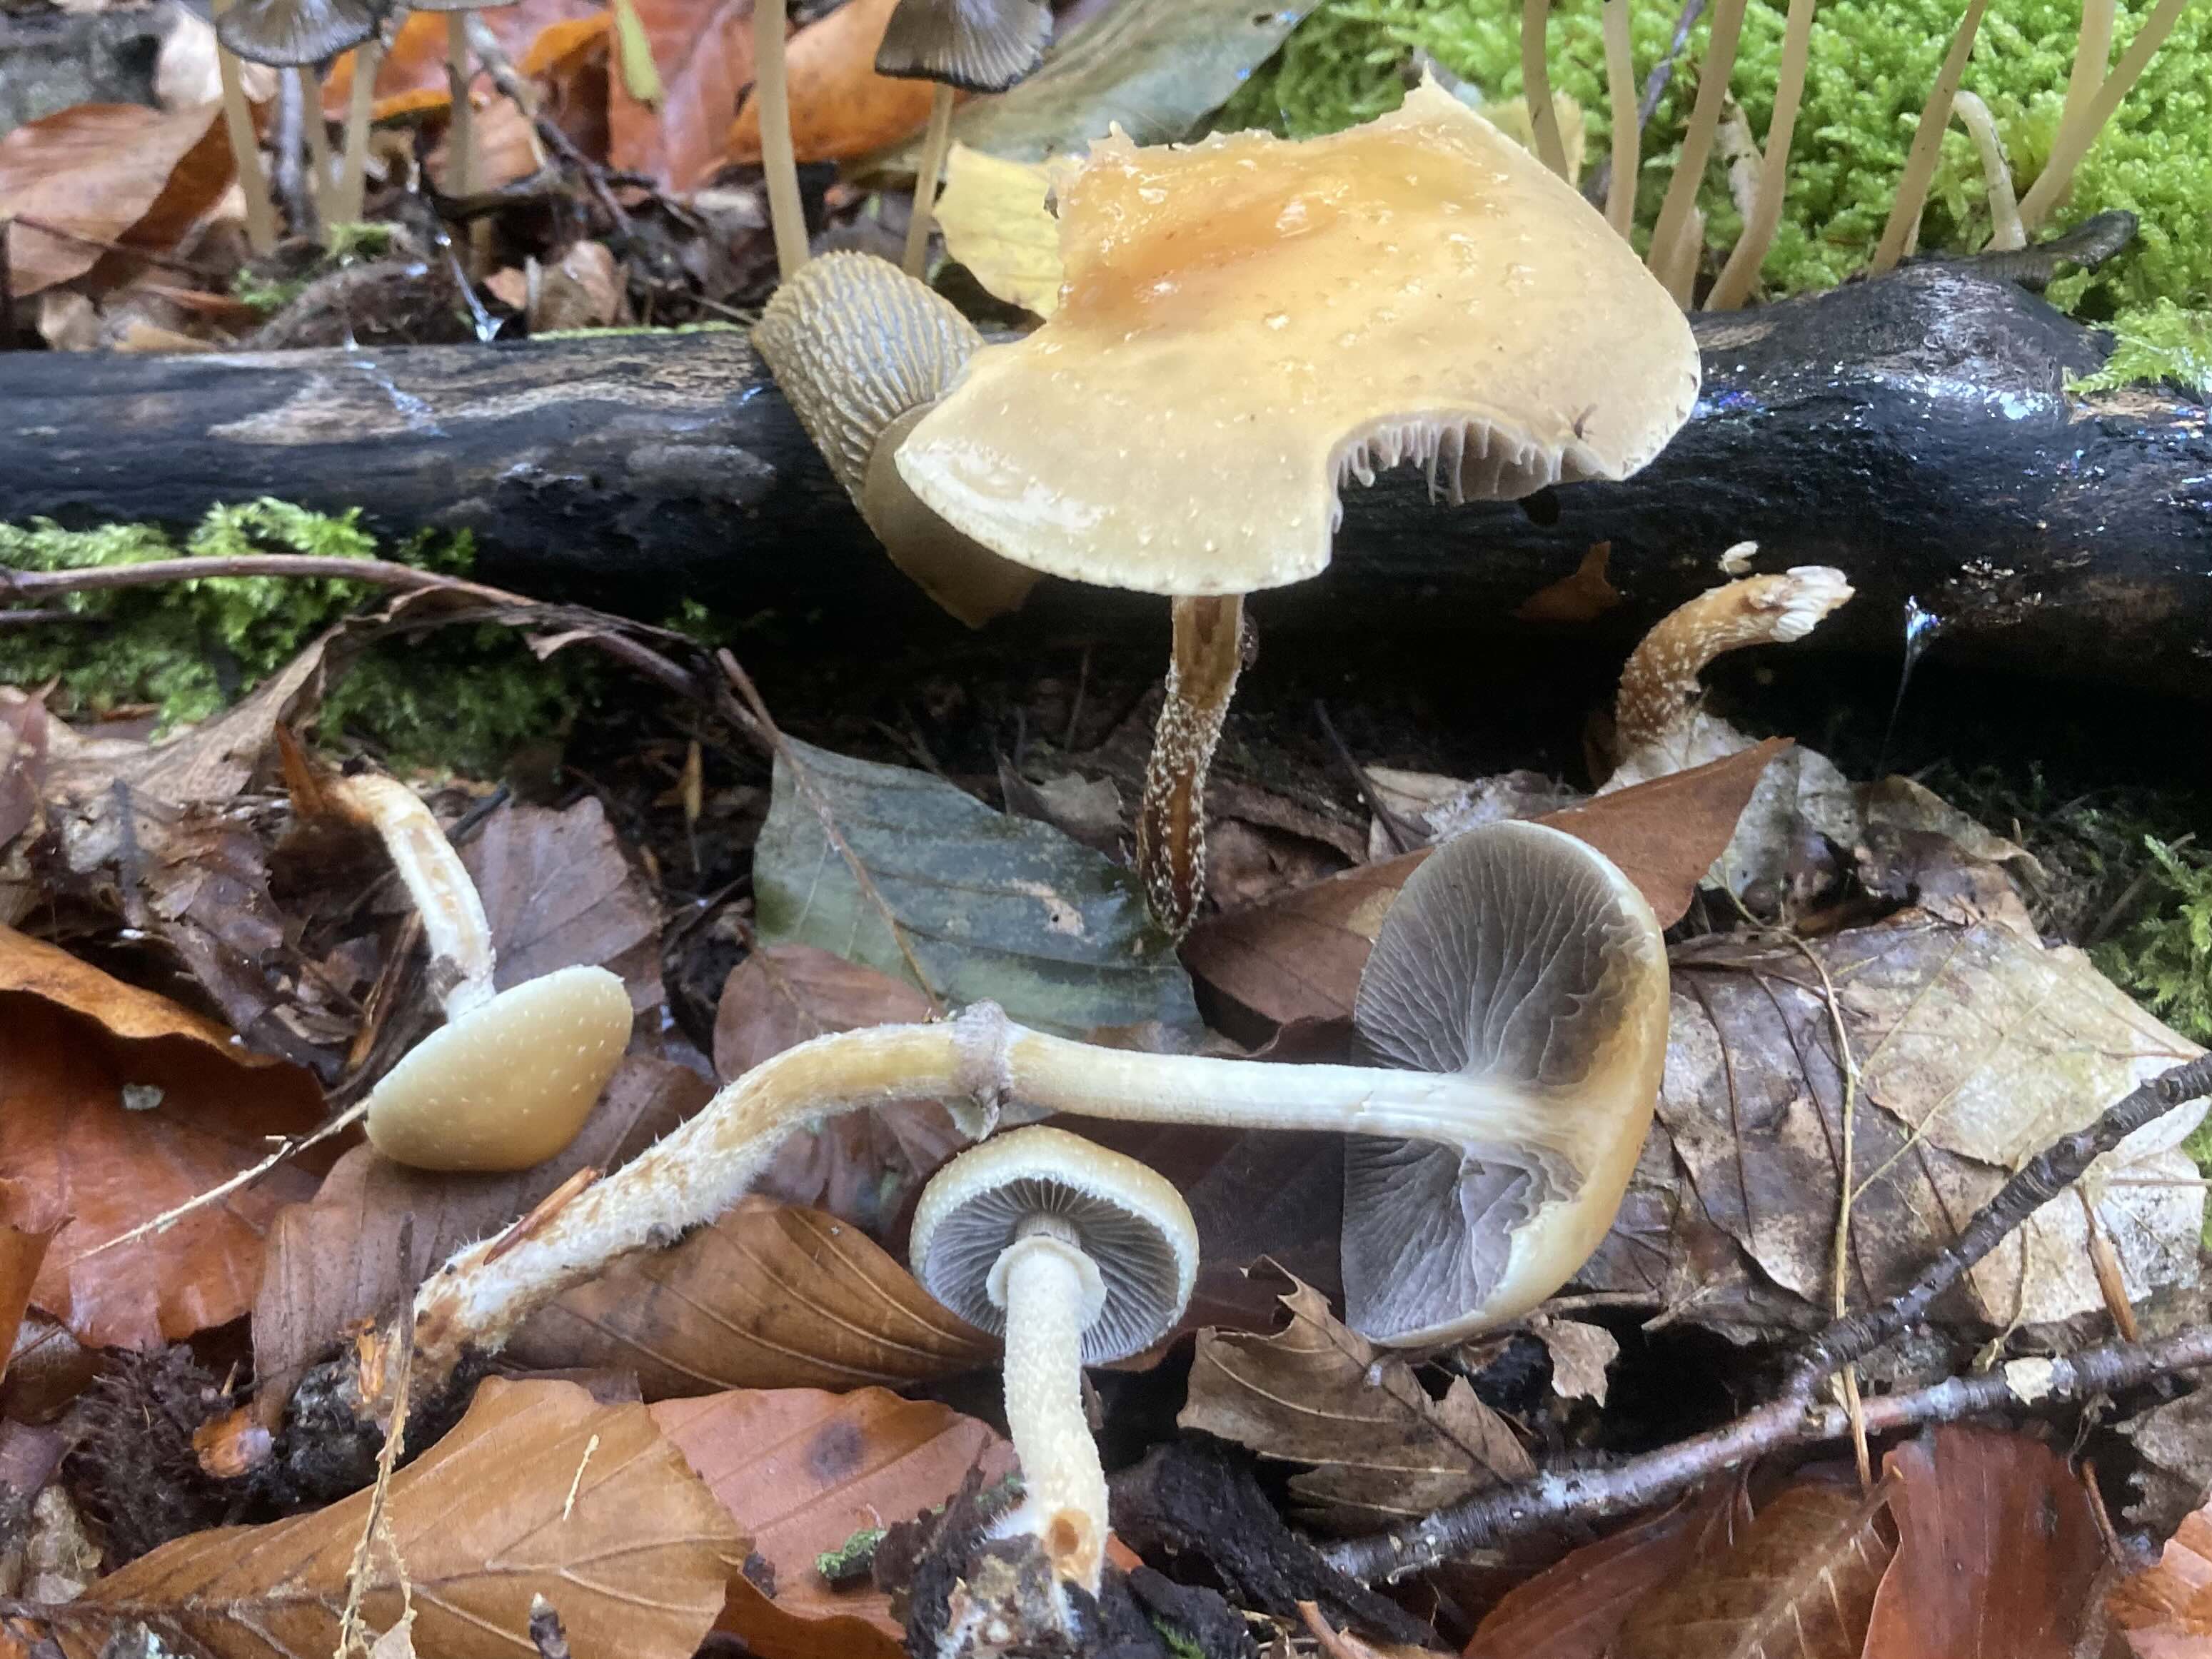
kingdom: Fungi
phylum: Basidiomycota
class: Agaricomycetes
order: Agaricales
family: Strophariaceae
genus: Leratiomyces
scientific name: Leratiomyces squamosus
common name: skællet bredblad
